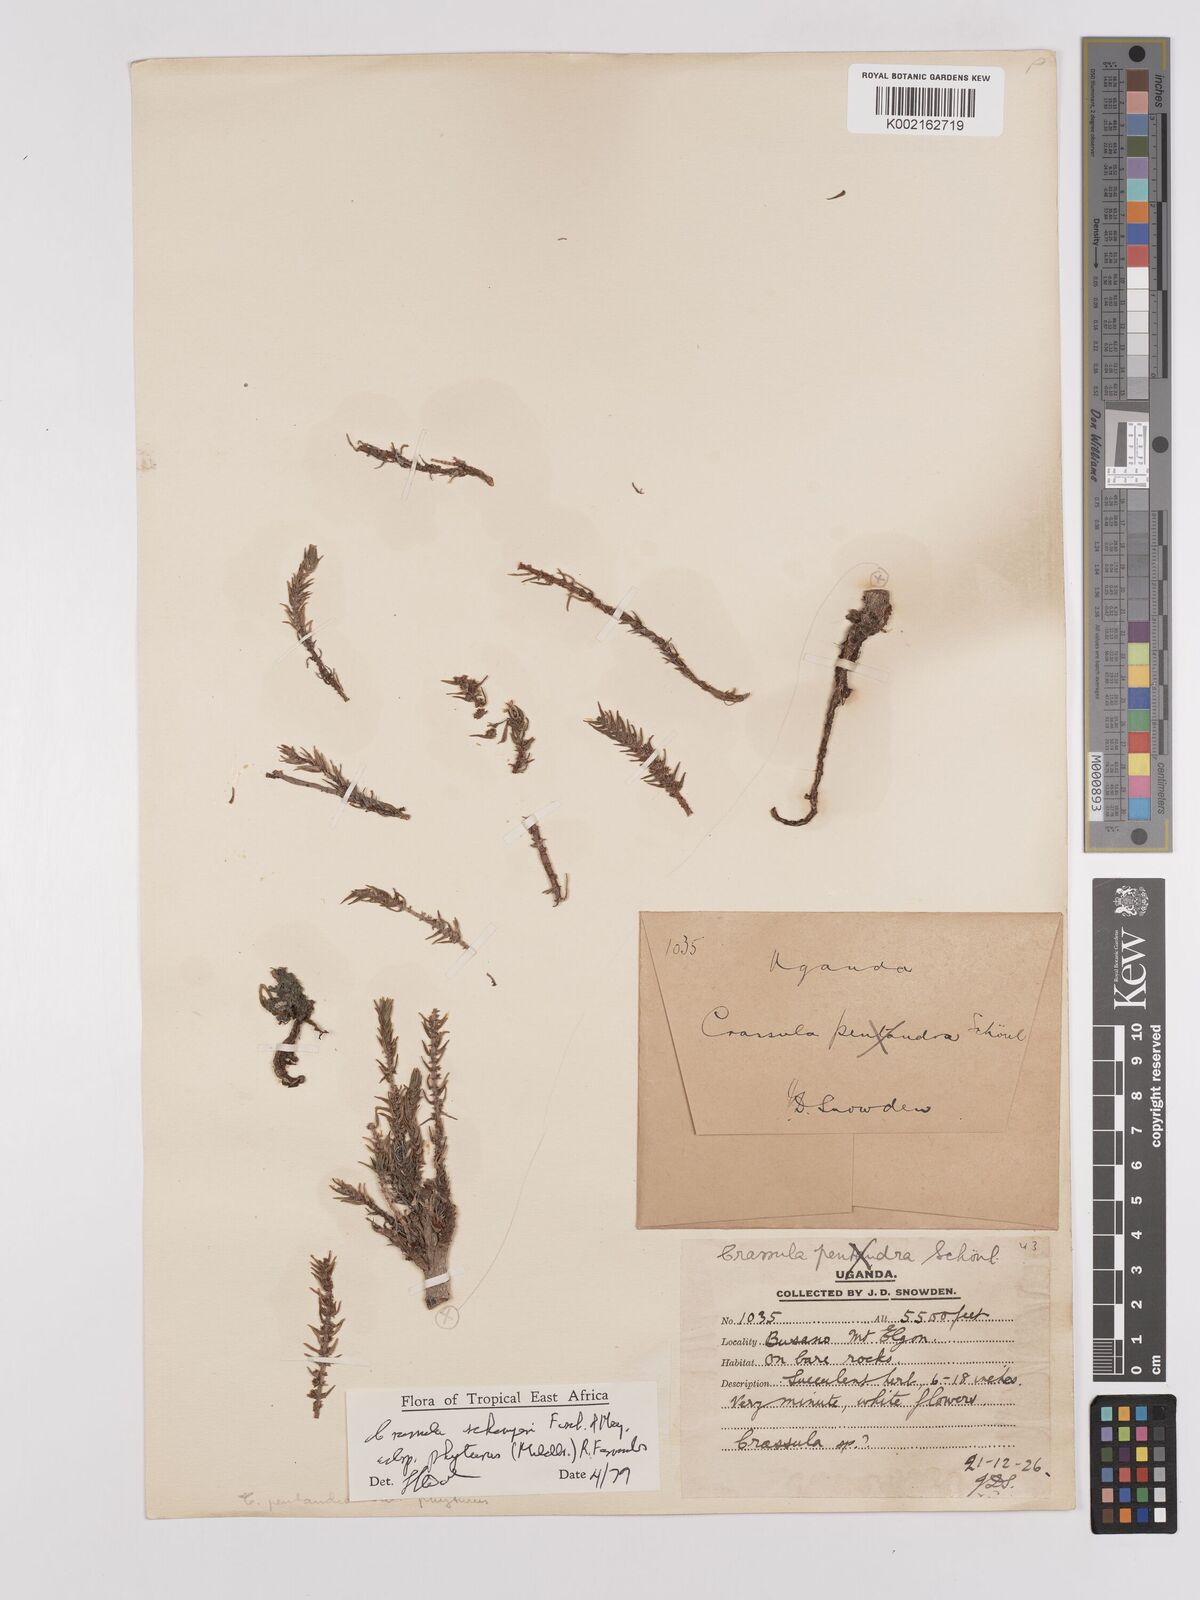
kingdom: Plantae
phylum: Tracheophyta
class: Magnoliopsida
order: Saxifragales
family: Crassulaceae
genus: Crassula
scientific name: Crassula schimperi
